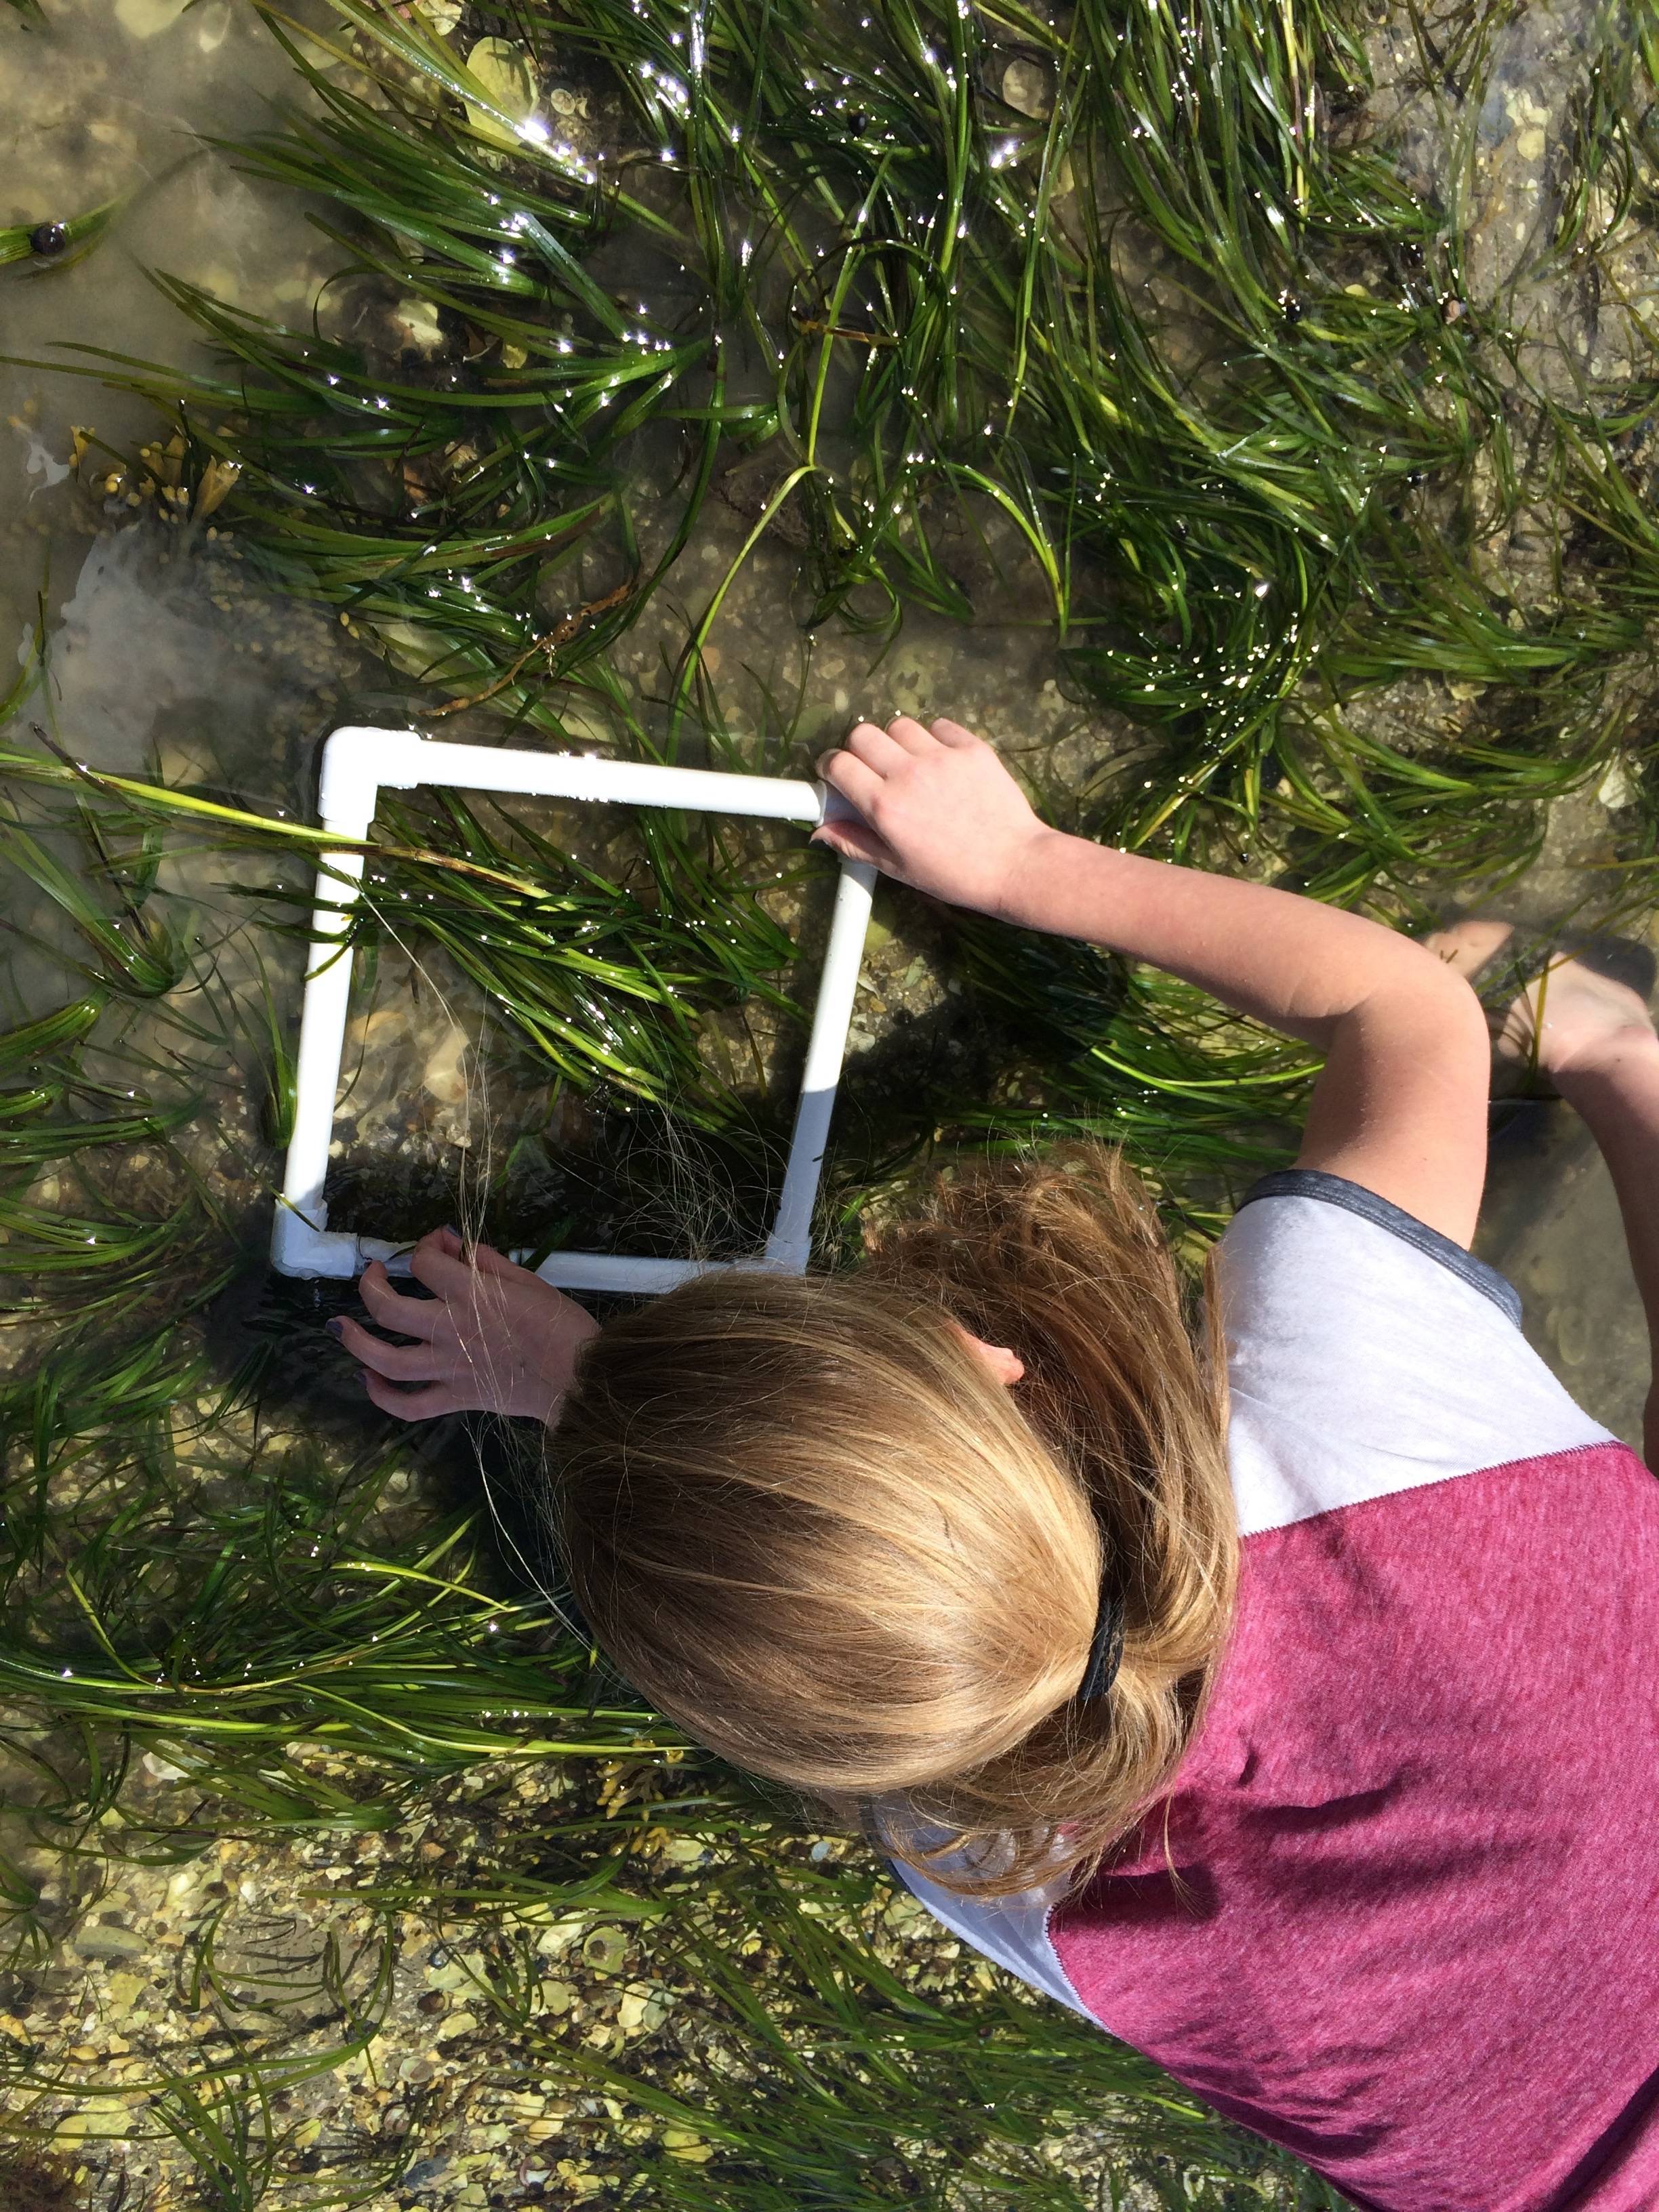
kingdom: Plantae
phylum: Tracheophyta
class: Liliopsida
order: Alismatales
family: Zosteraceae
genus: Zostera
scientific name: Zostera marina
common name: Eelgrass
